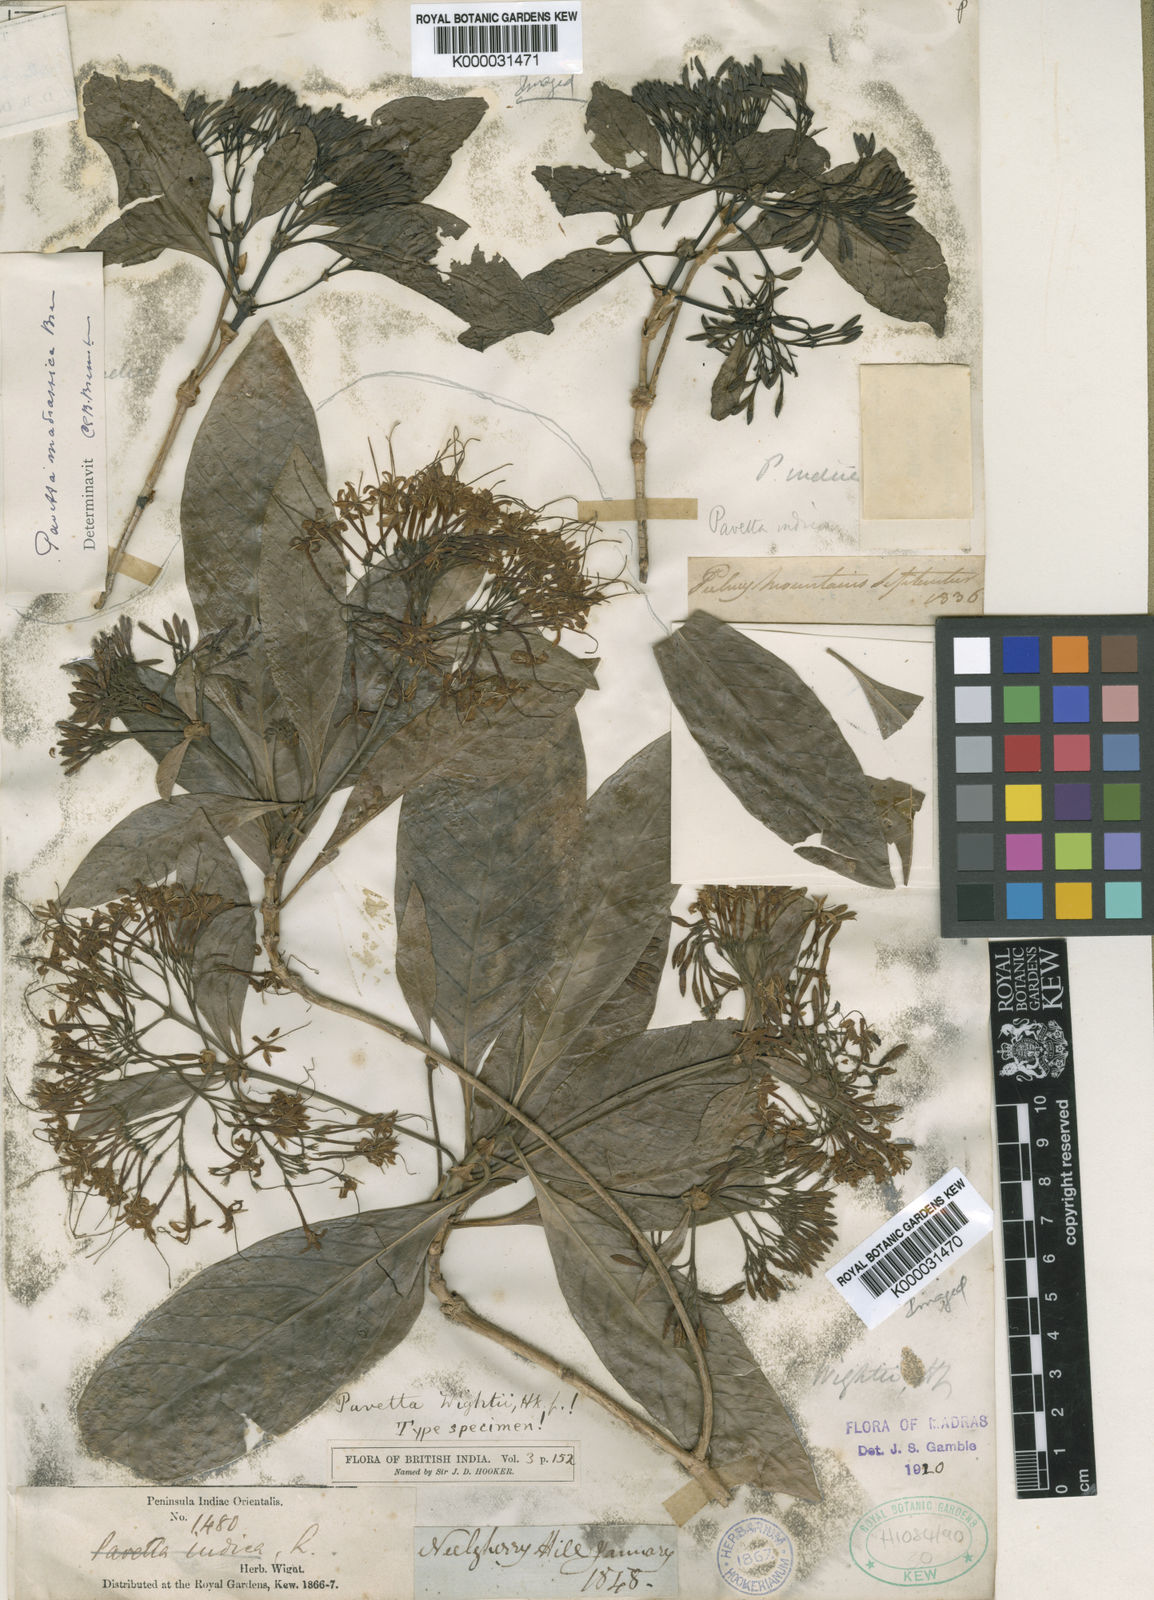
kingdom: Plantae
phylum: Tracheophyta
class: Magnoliopsida
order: Gentianales
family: Rubiaceae
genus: Pavetta
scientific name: Pavetta wightii
